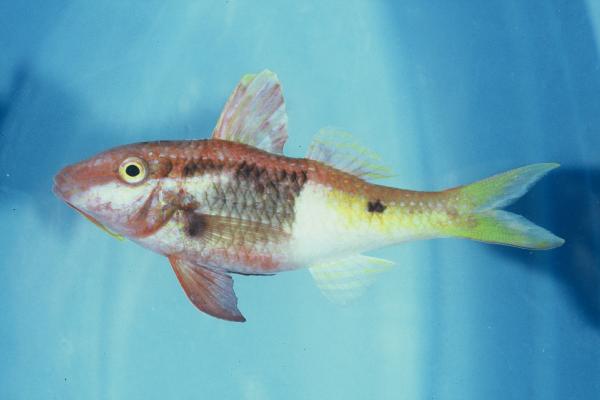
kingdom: Animalia
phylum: Chordata
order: Perciformes
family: Mullidae
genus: Parupeneus
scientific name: Parupeneus barberinoides
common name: Half-and-half goatfish
